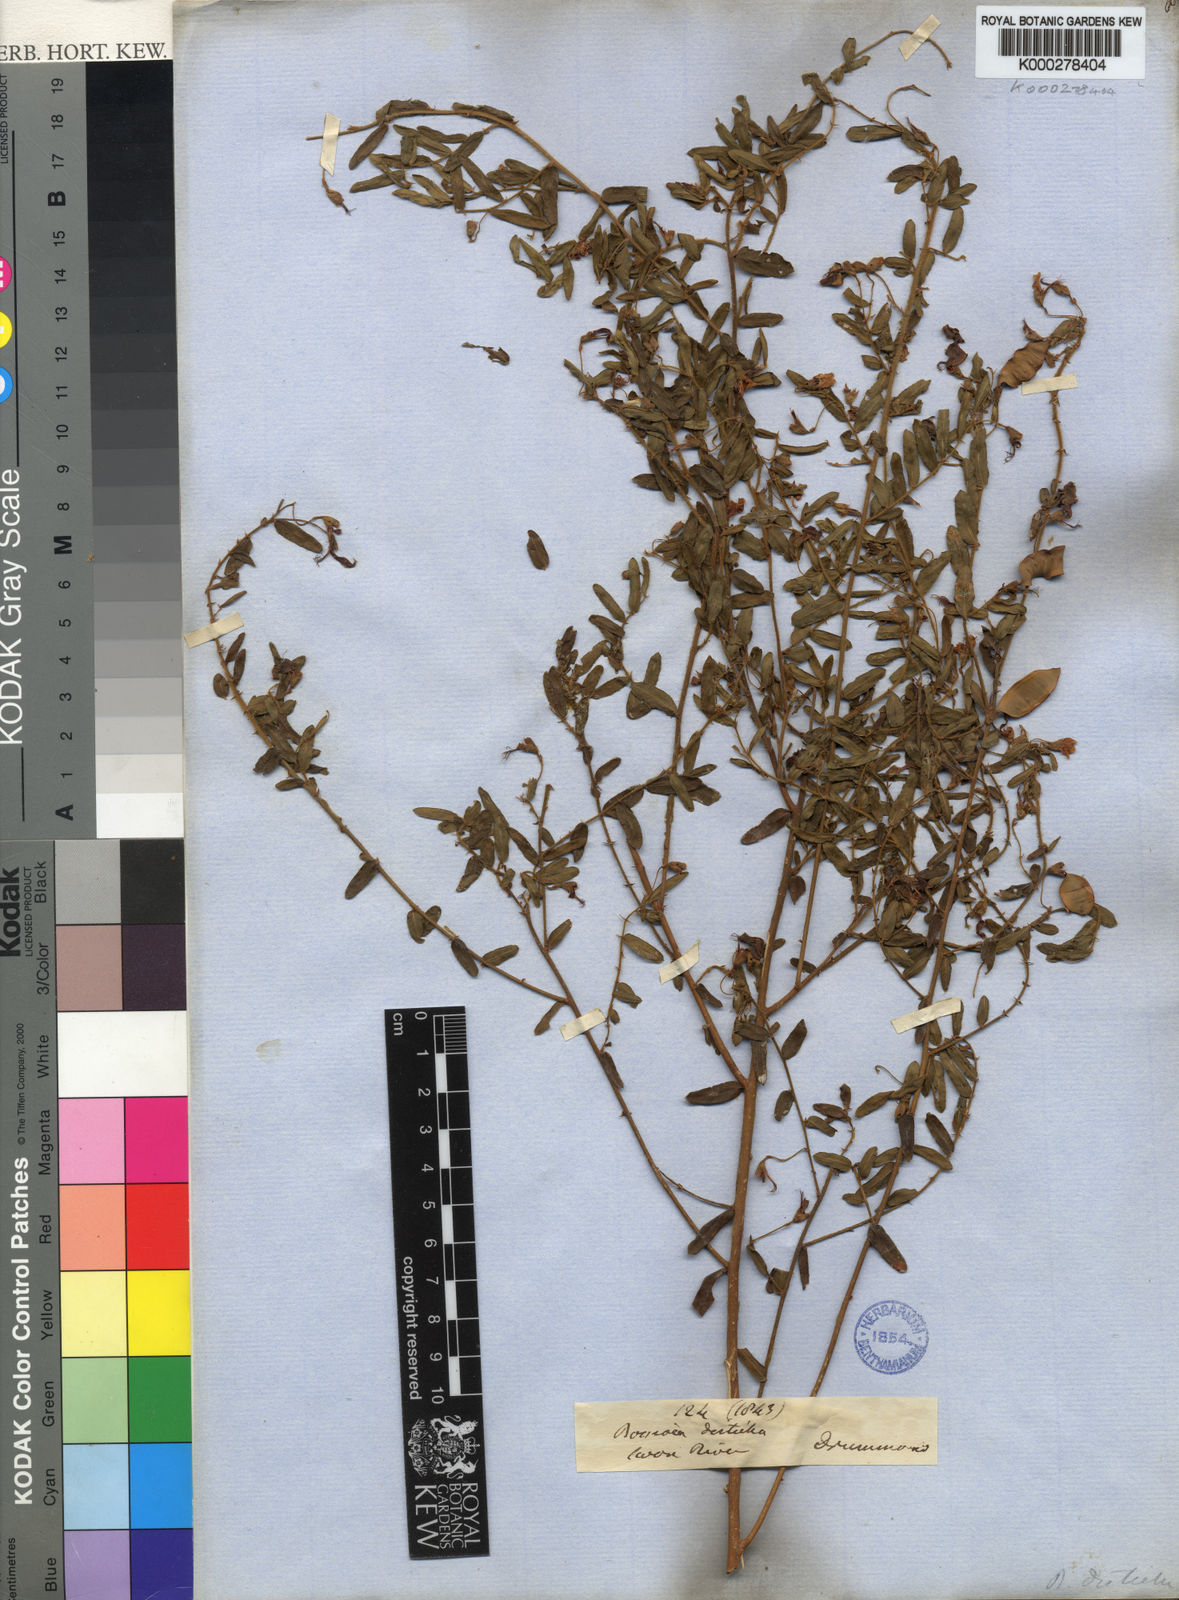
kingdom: Plantae
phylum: Tracheophyta
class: Magnoliopsida
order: Fabales
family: Fabaceae
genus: Bossiaea
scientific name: Bossiaea disticha
